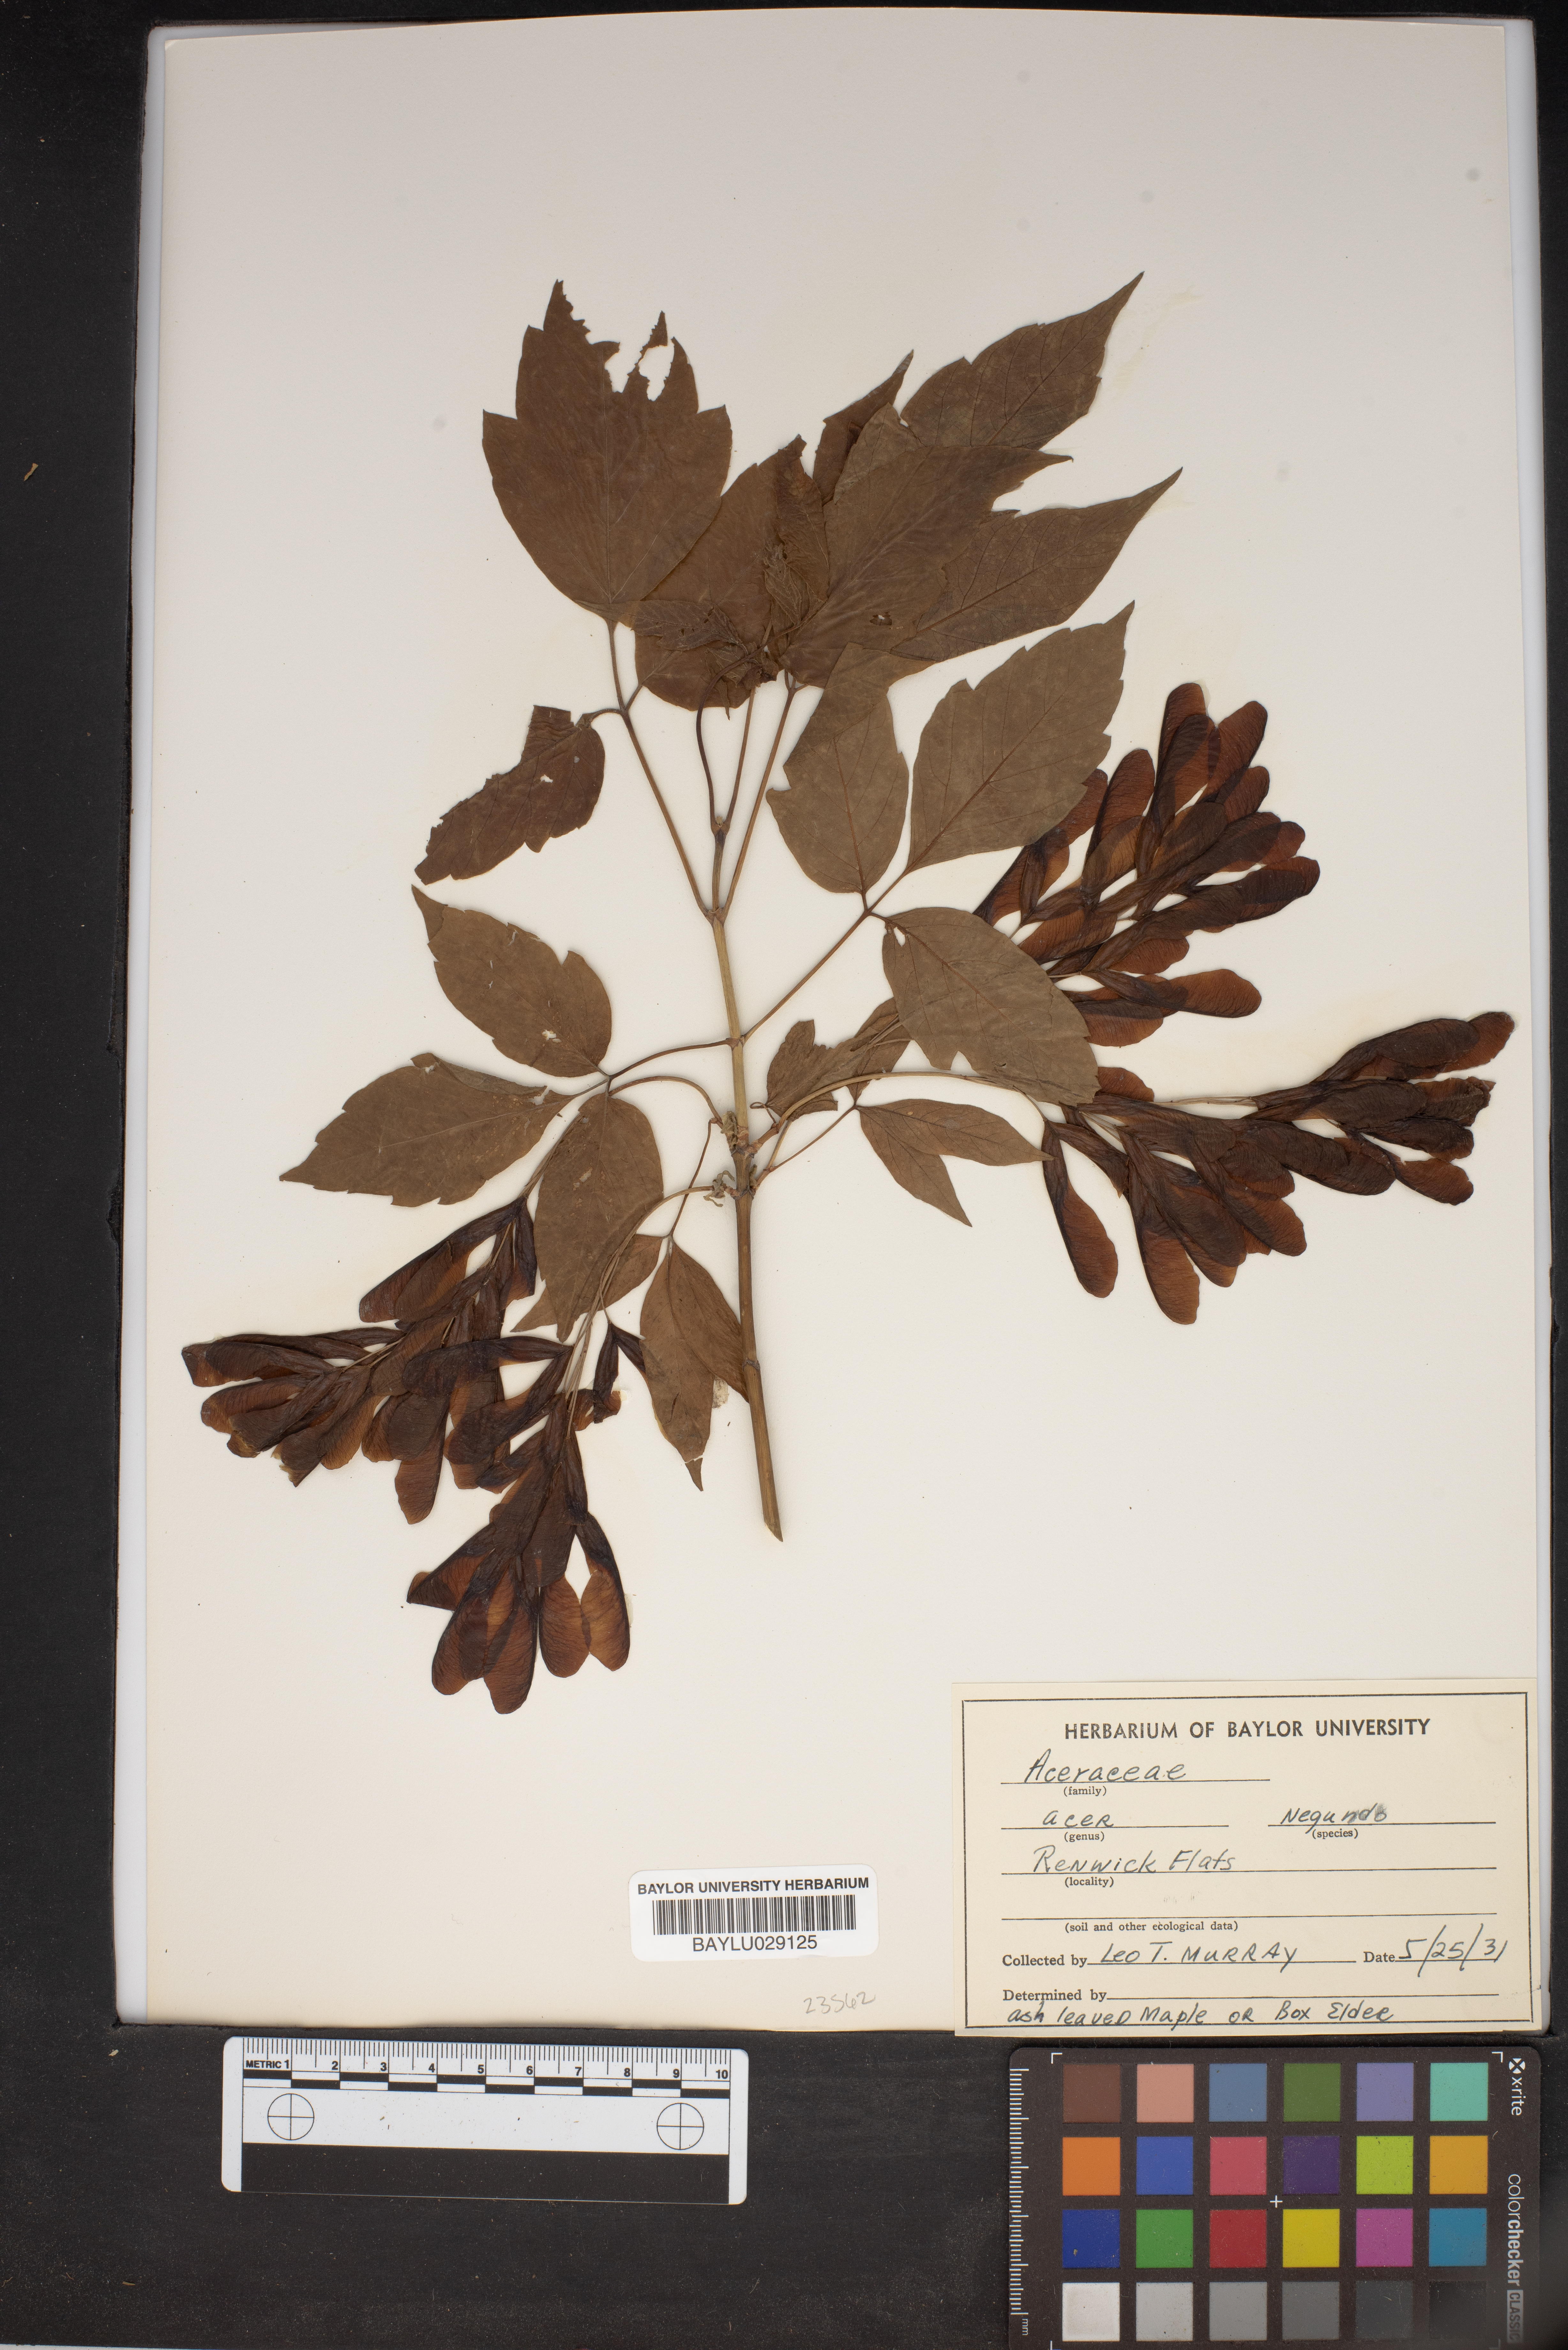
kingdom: Plantae
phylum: Tracheophyta
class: Magnoliopsida
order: Sapindales
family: Sapindaceae
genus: Acer
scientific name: Acer negundo
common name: Ashleaf maple
